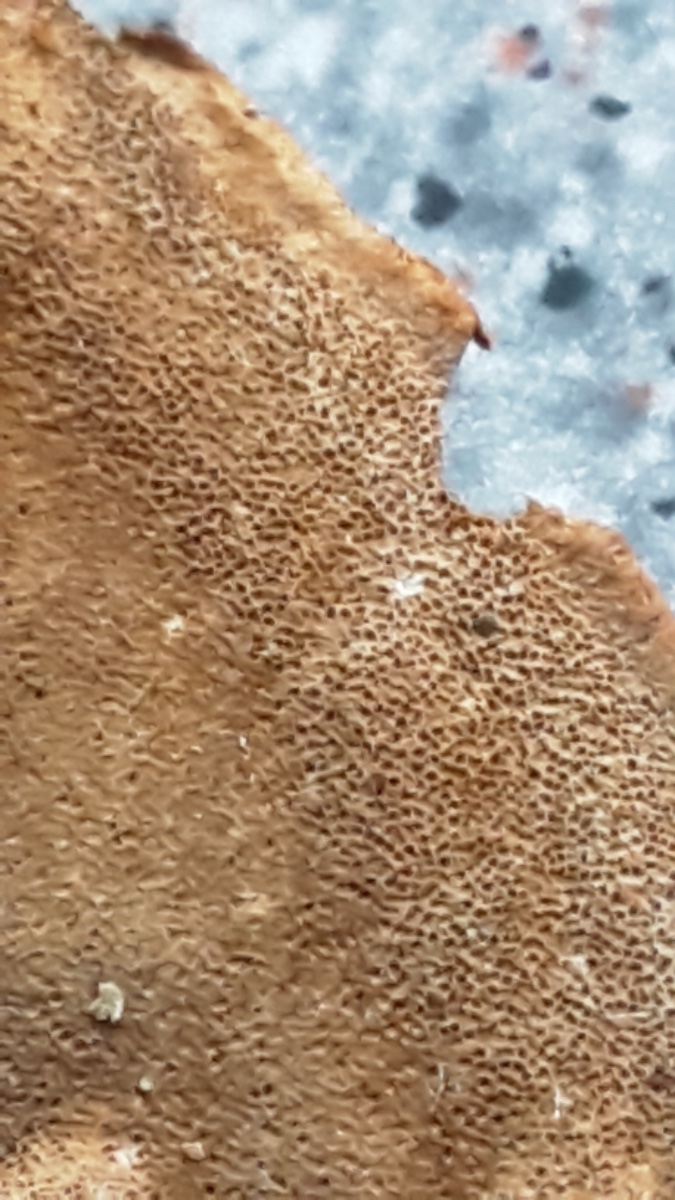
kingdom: Fungi
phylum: Basidiomycota
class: Agaricomycetes
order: Hymenochaetales
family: Hymenochaetaceae
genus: Phellinus
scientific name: Phellinus laevigatus
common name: glat ildporesvamp
